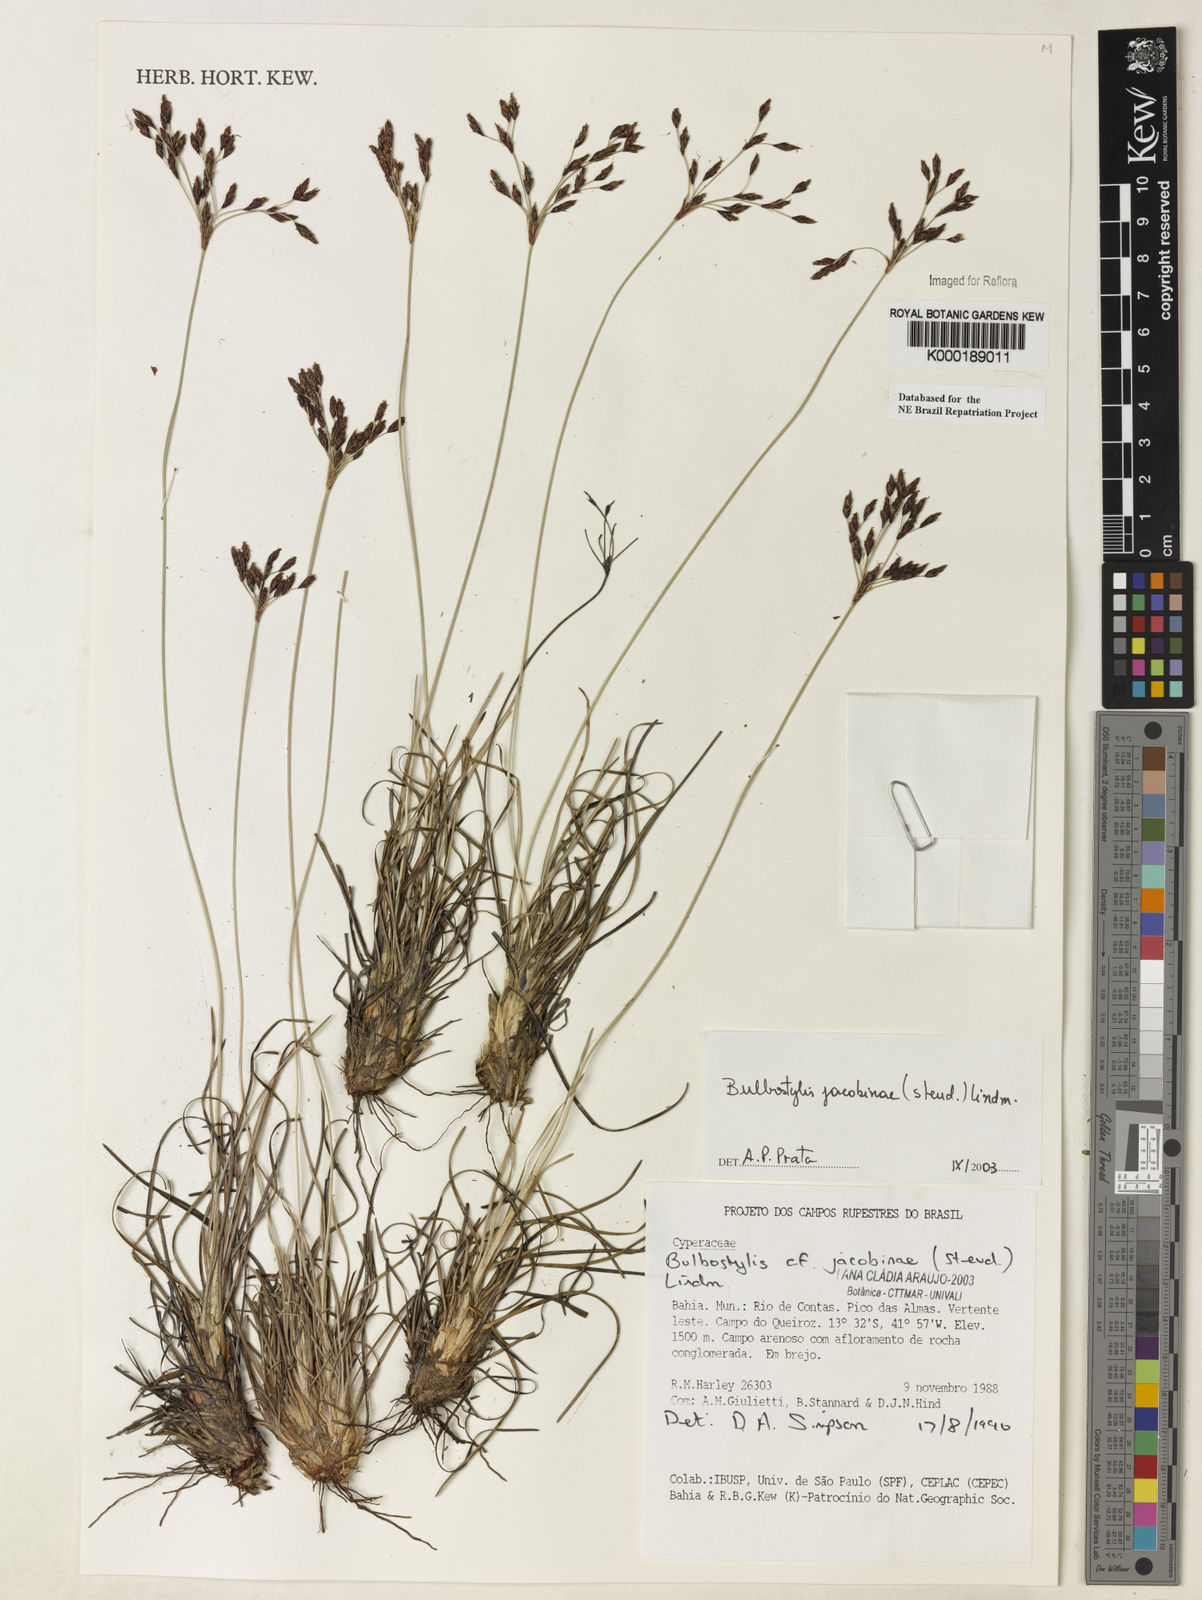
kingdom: Plantae
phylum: Tracheophyta
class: Liliopsida
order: Poales
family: Cyperaceae
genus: Bulbostylis
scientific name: Bulbostylis jacobinae
